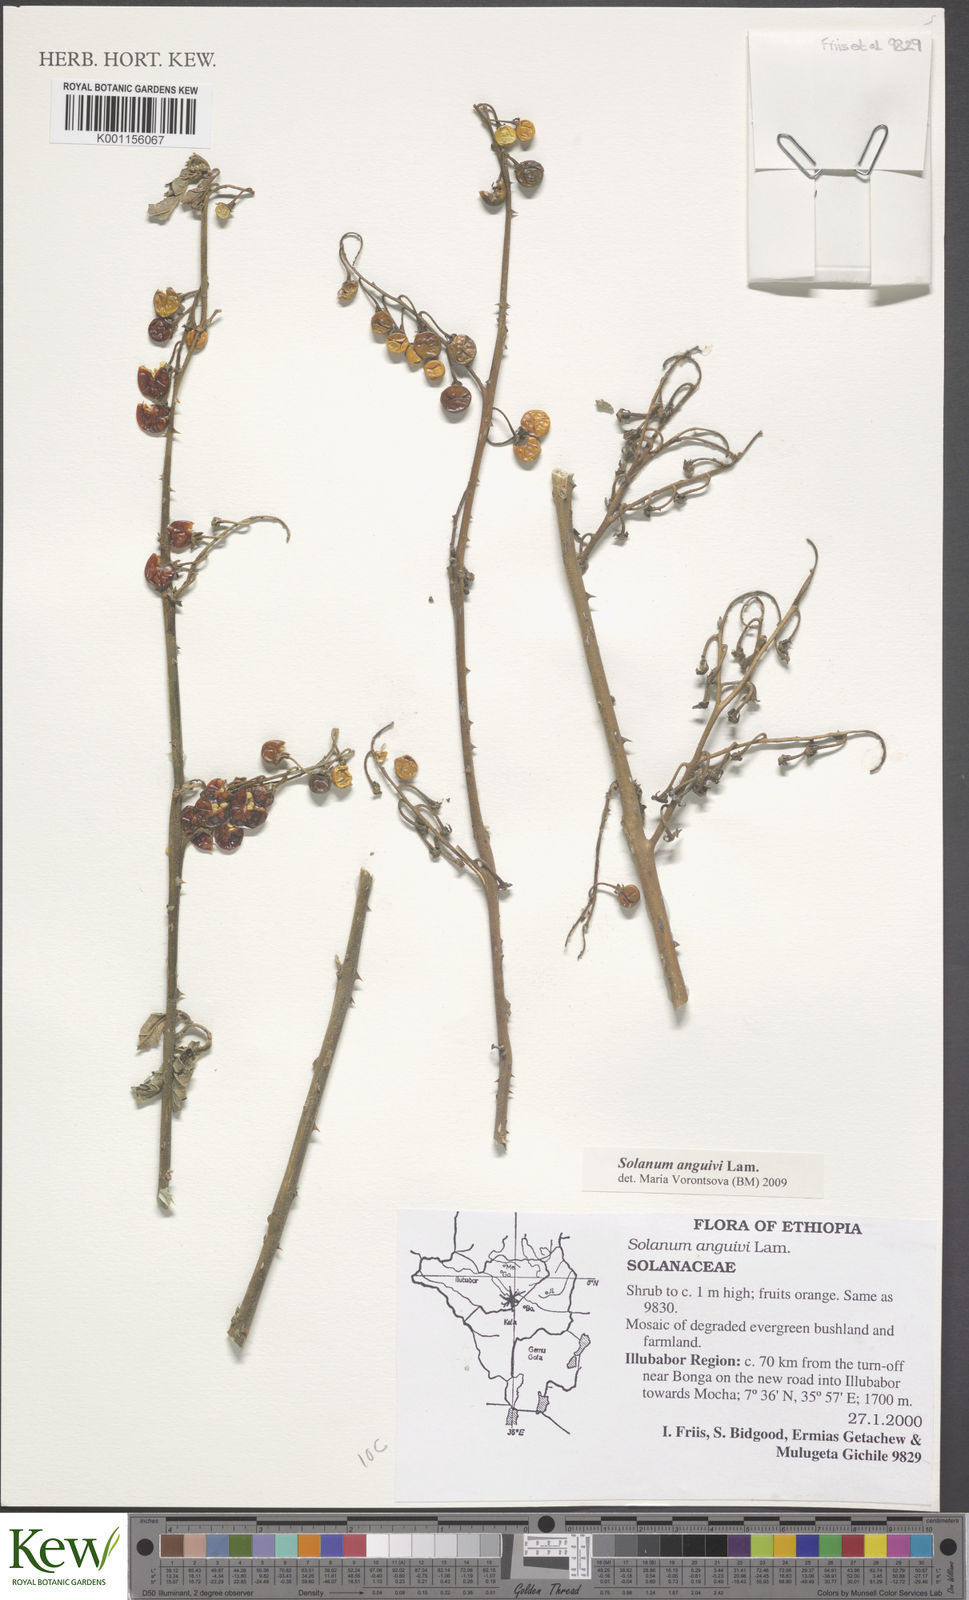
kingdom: Plantae
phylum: Tracheophyta
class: Magnoliopsida
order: Solanales
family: Solanaceae
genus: Solanum
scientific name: Solanum anguivi
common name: Forest bitterberry
